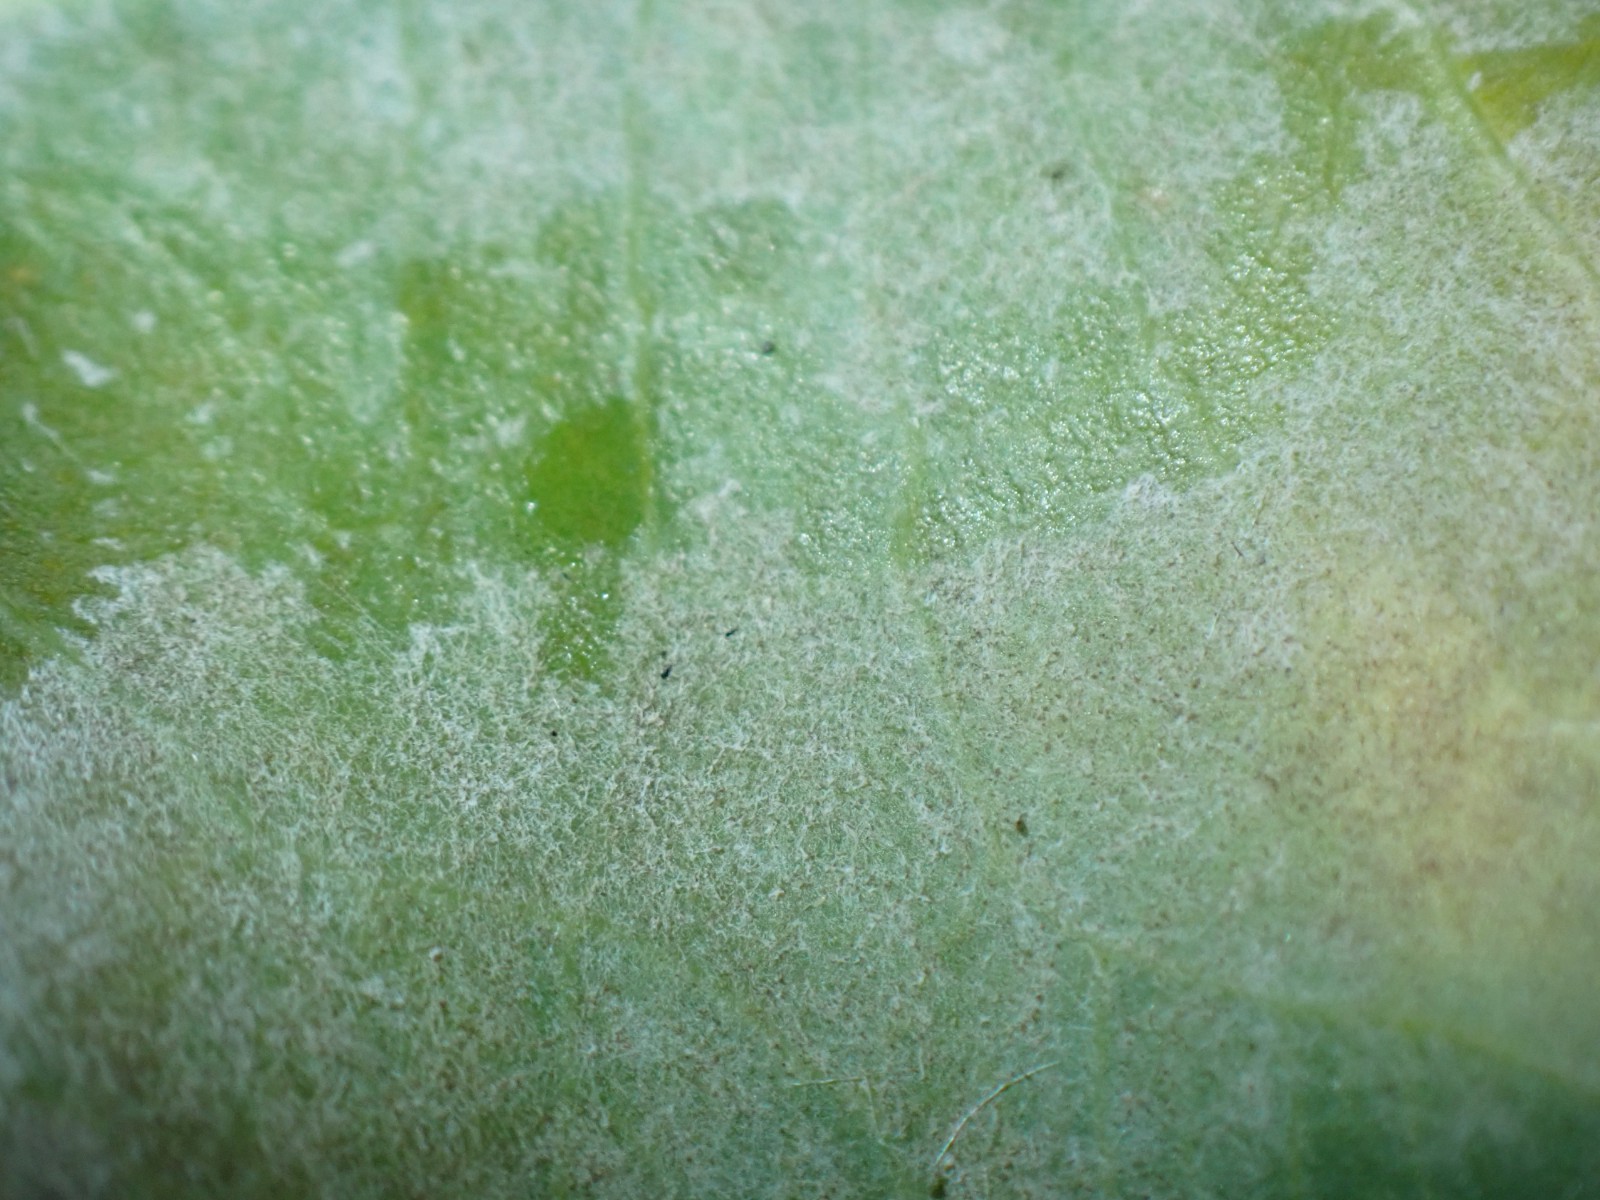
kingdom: Fungi
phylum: Ascomycota
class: Dothideomycetes
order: Pleosporales
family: Phaeosphaeriaceae
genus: Ampelomyces
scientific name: Ampelomyces quisqualis
